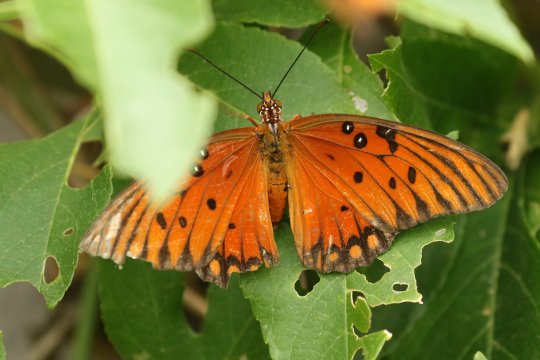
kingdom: Animalia
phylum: Arthropoda
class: Insecta
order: Lepidoptera
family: Nymphalidae
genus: Dione
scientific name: Dione vanillae
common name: Gulf Fritillary
